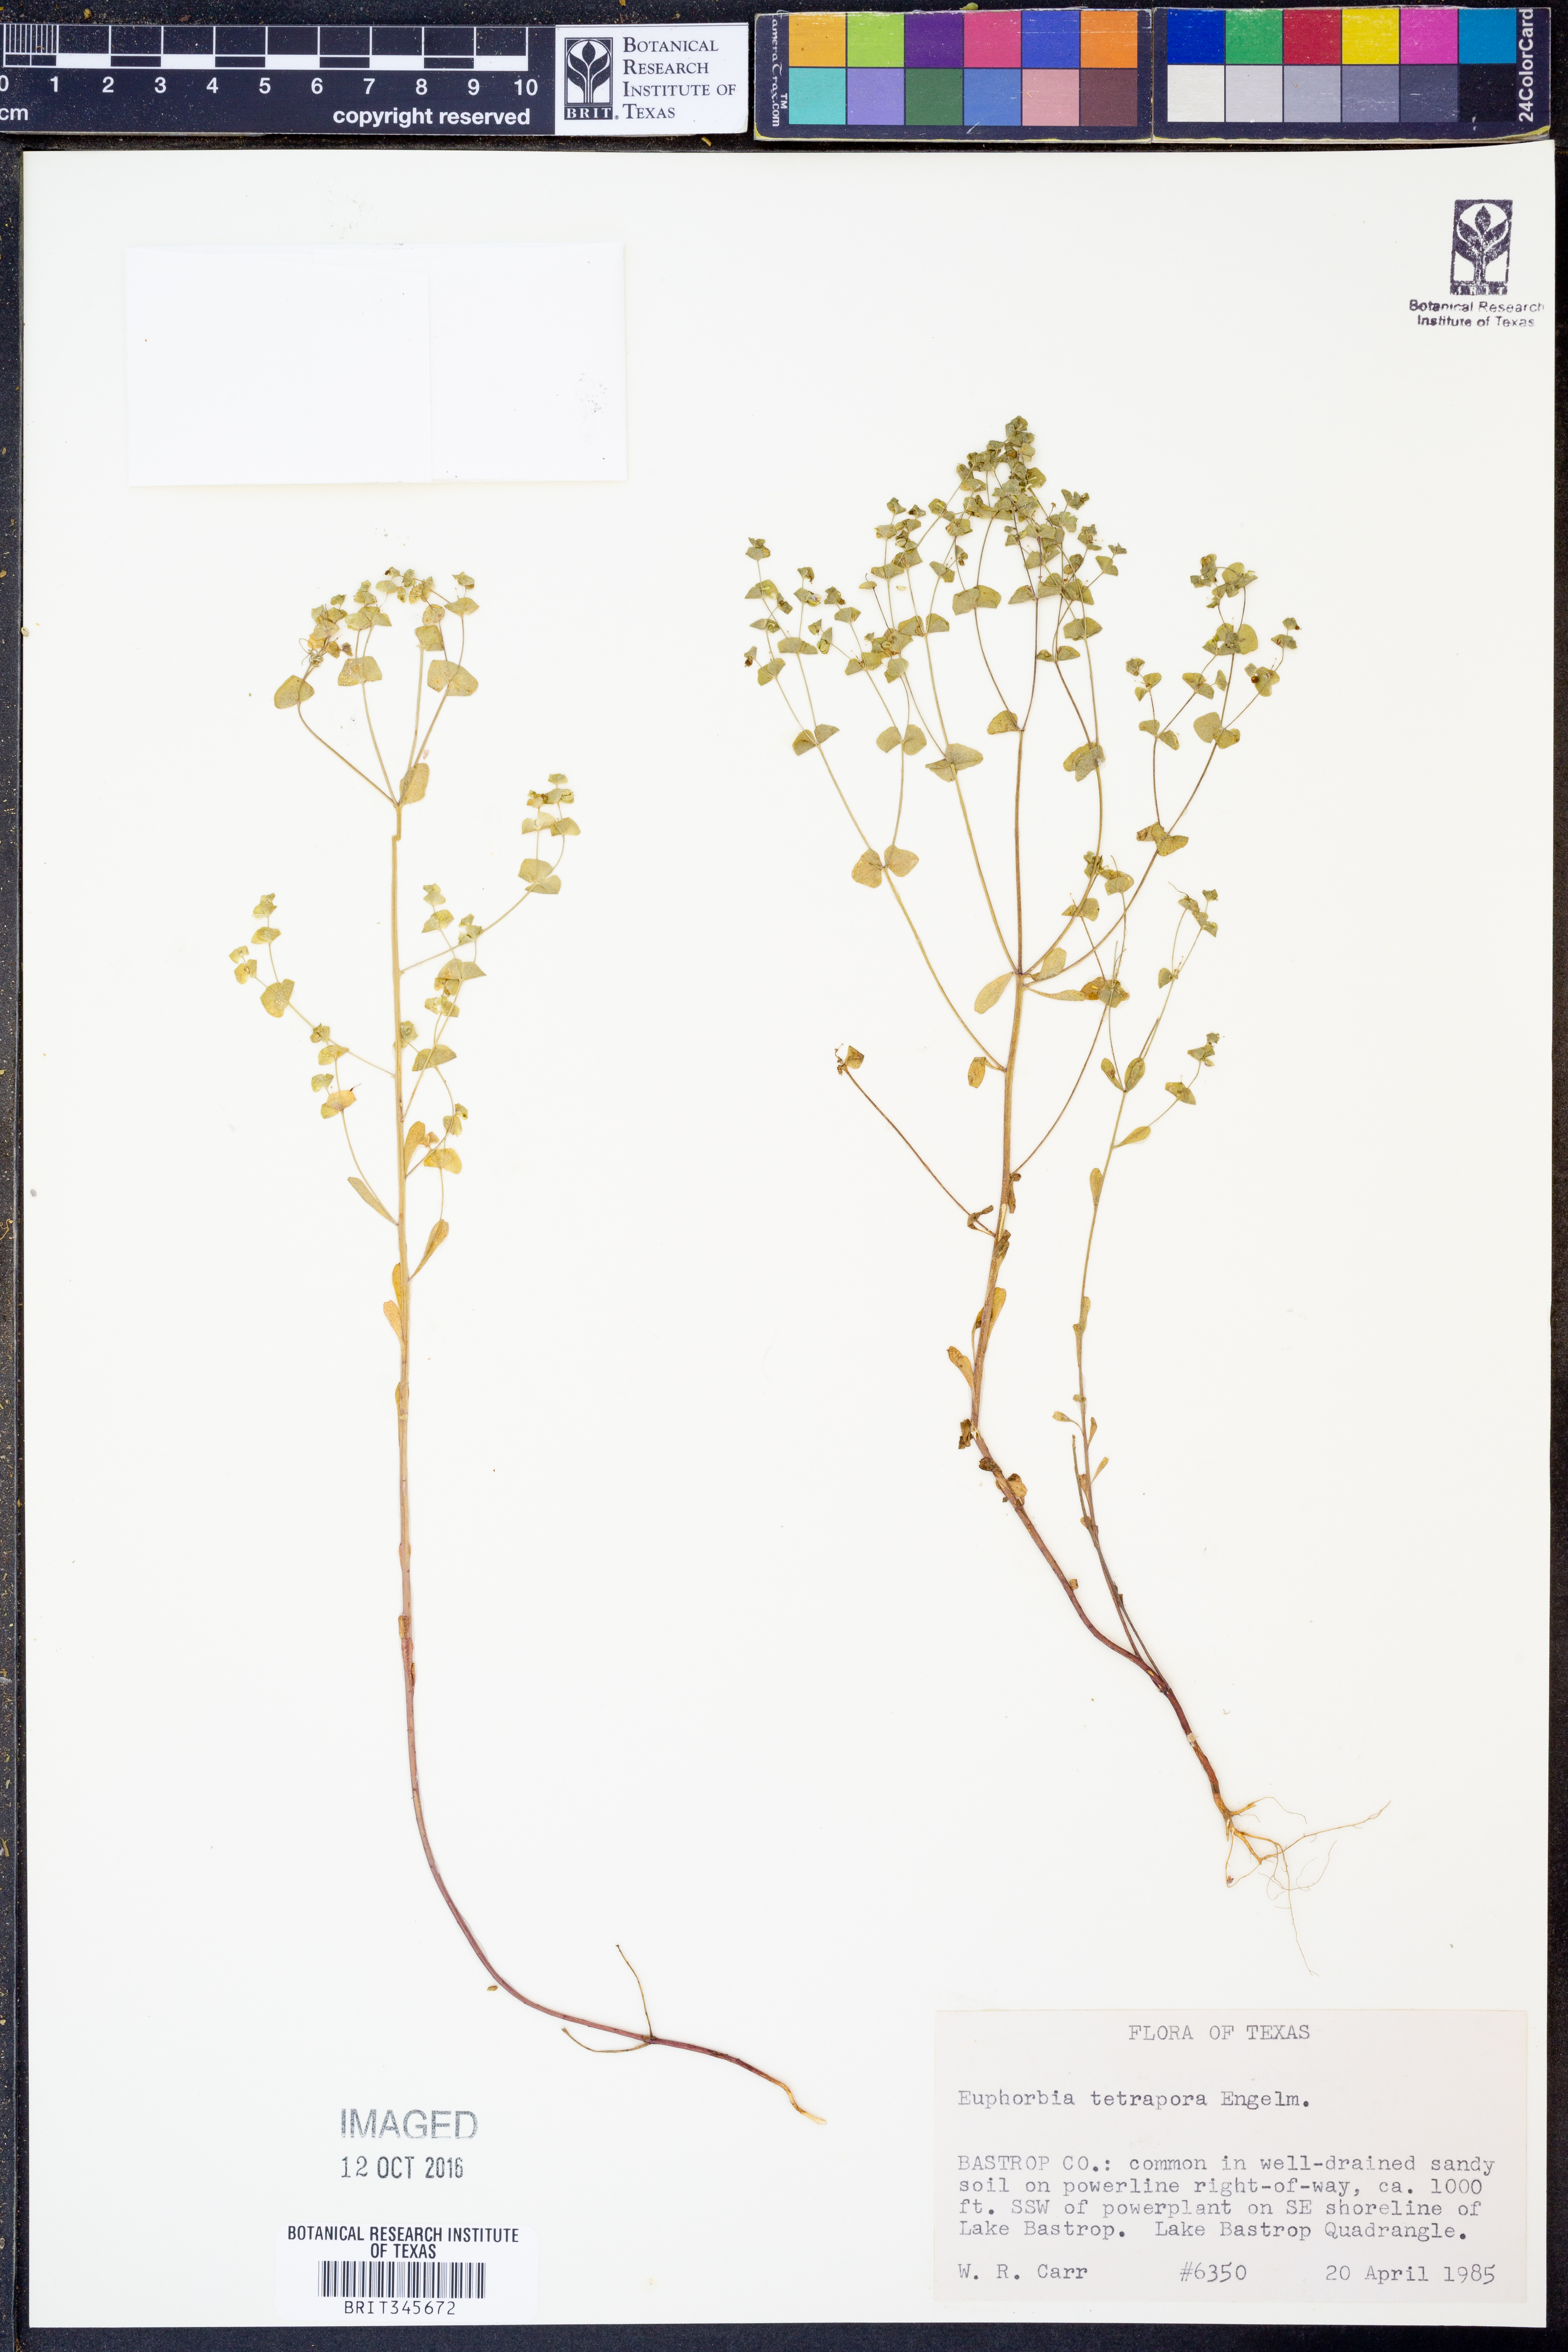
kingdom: Plantae
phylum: Tracheophyta
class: Magnoliopsida
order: Malpighiales
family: Euphorbiaceae
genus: Euphorbia
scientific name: Euphorbia tetrapora
